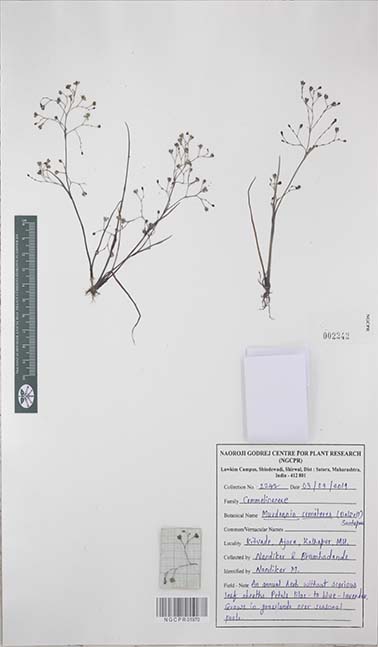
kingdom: Plantae
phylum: Tracheophyta
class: Liliopsida
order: Commelinales
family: Commelinaceae
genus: Murdannia
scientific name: Murdannia semiteres
